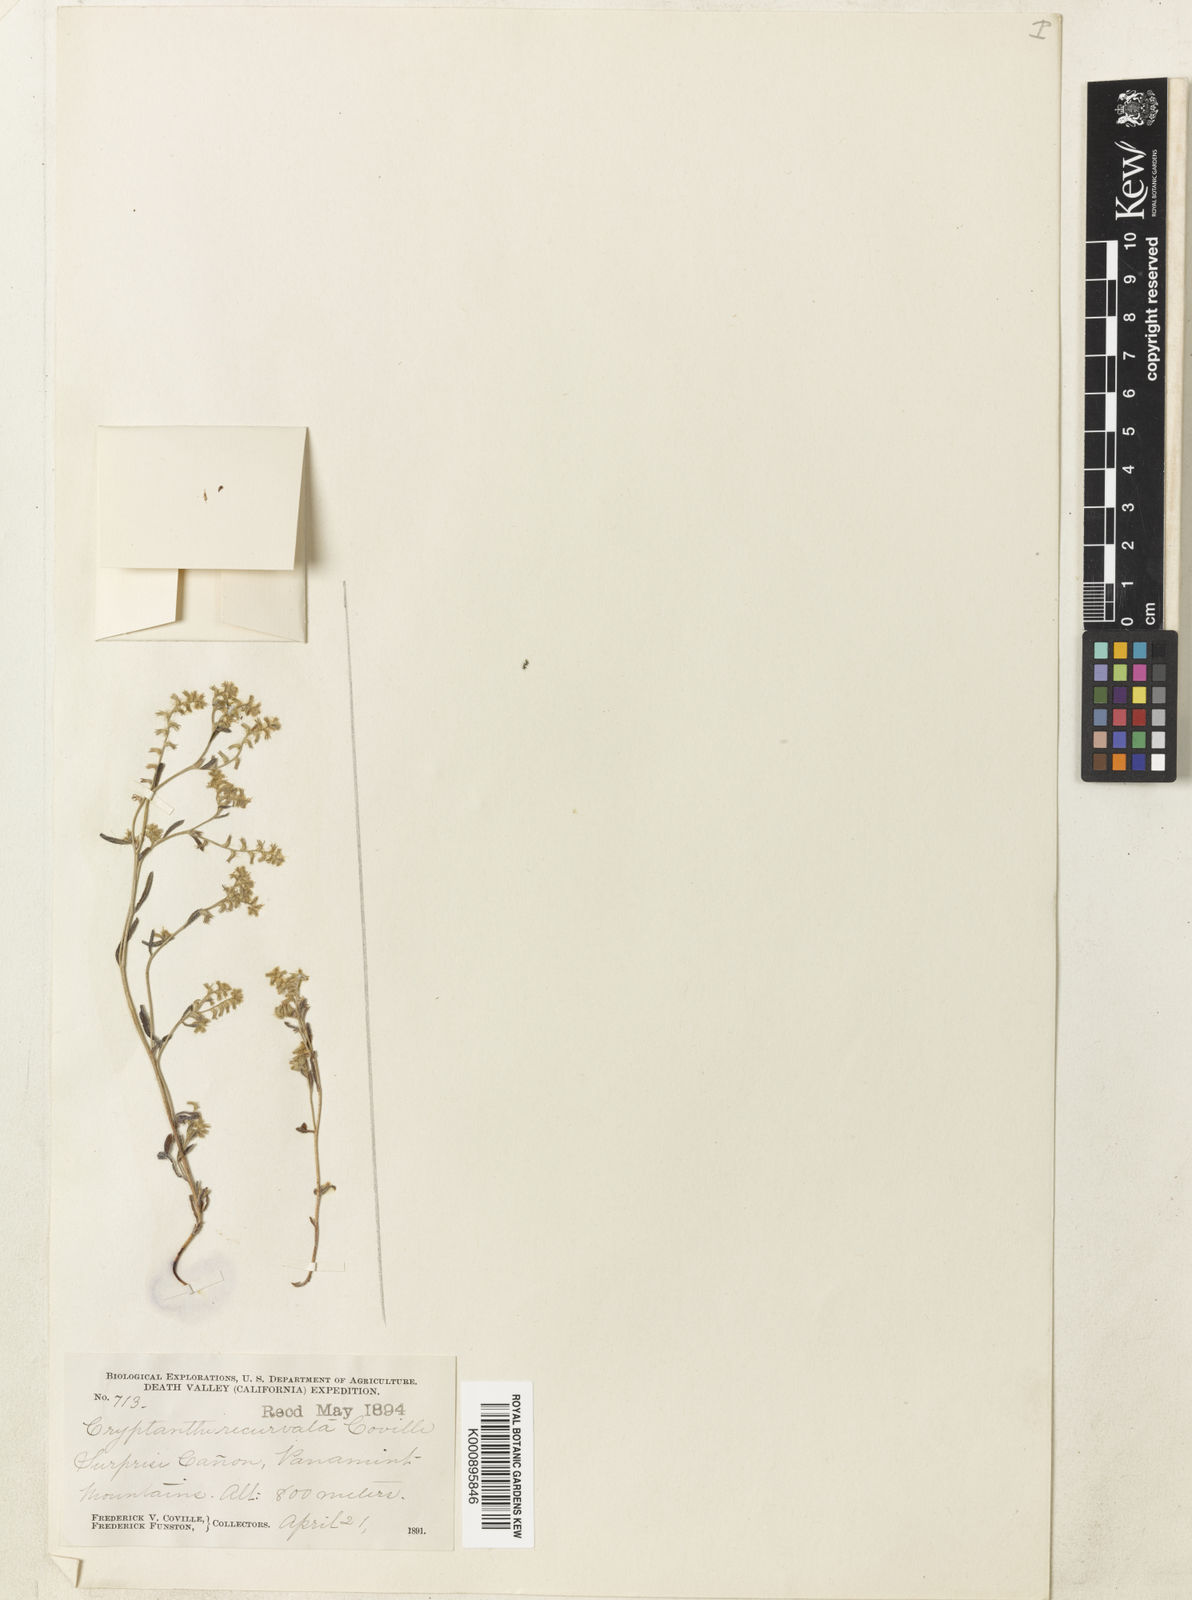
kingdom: Plantae
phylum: Tracheophyta
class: Magnoliopsida
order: Boraginales
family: Boraginaceae
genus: Cryptantha
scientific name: Cryptantha recurvata
